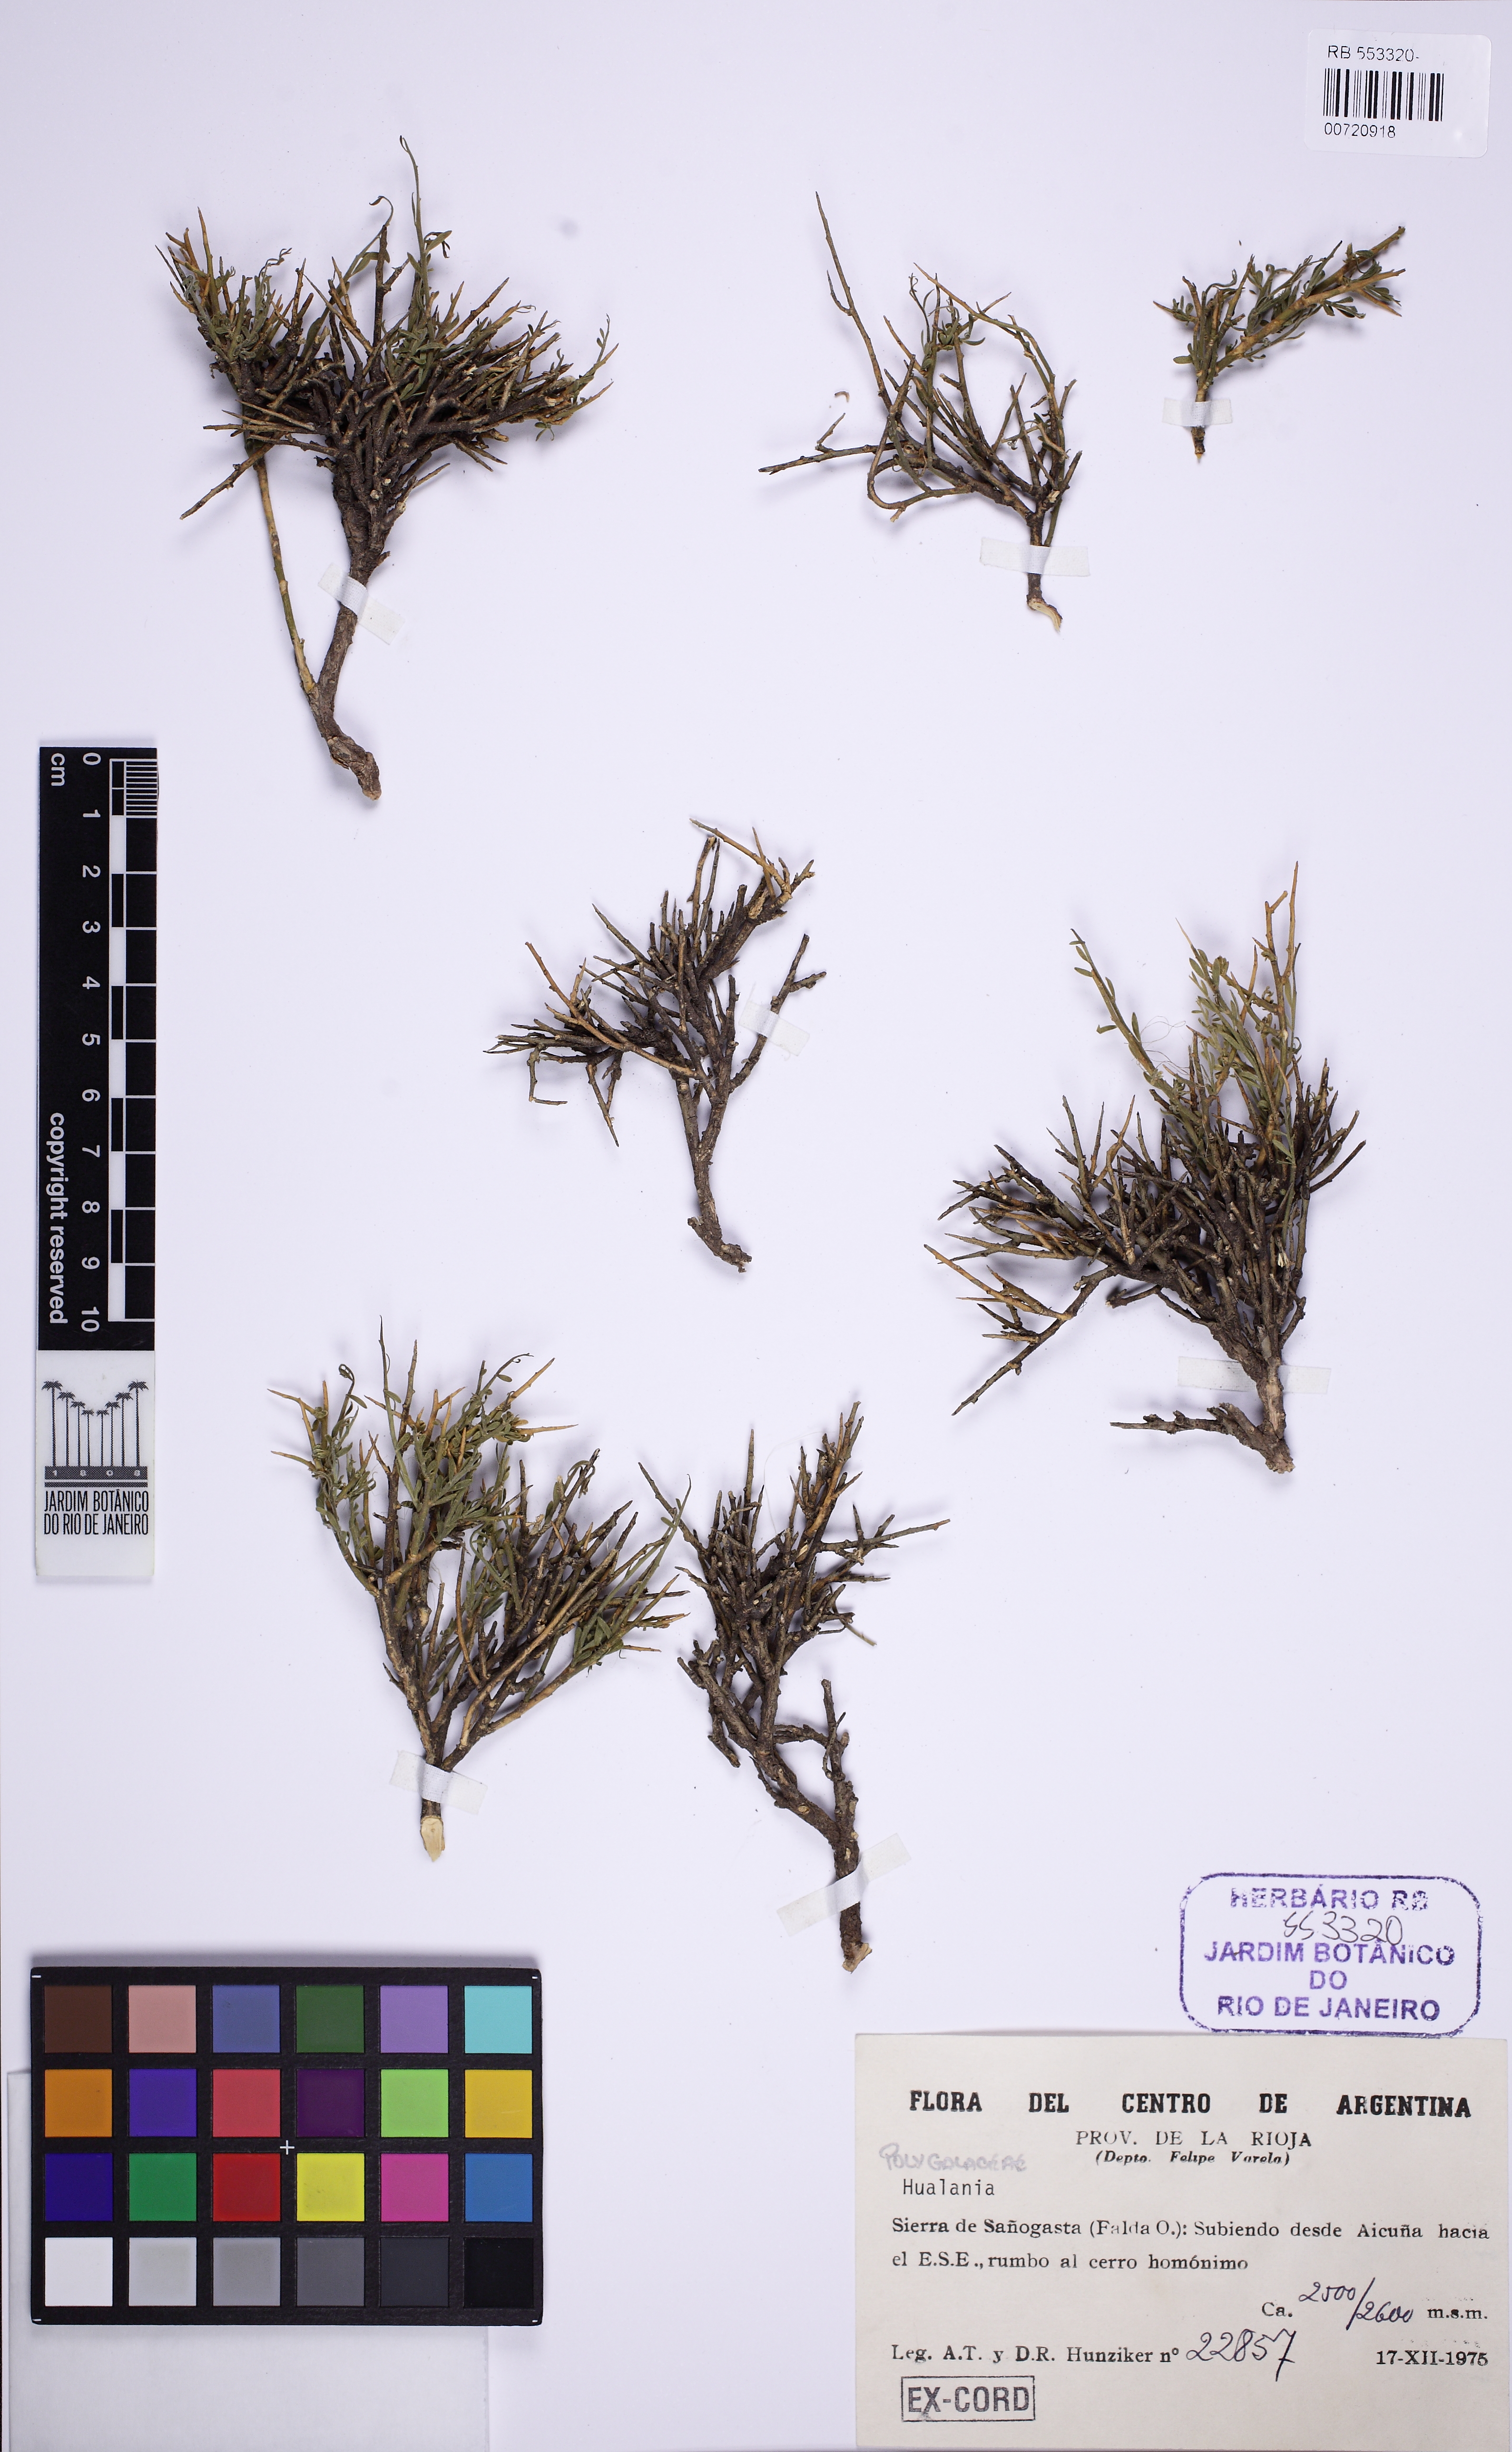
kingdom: Plantae
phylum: Tracheophyta
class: Magnoliopsida
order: Fabales
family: Polygalaceae
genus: Hualania
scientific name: Hualania
